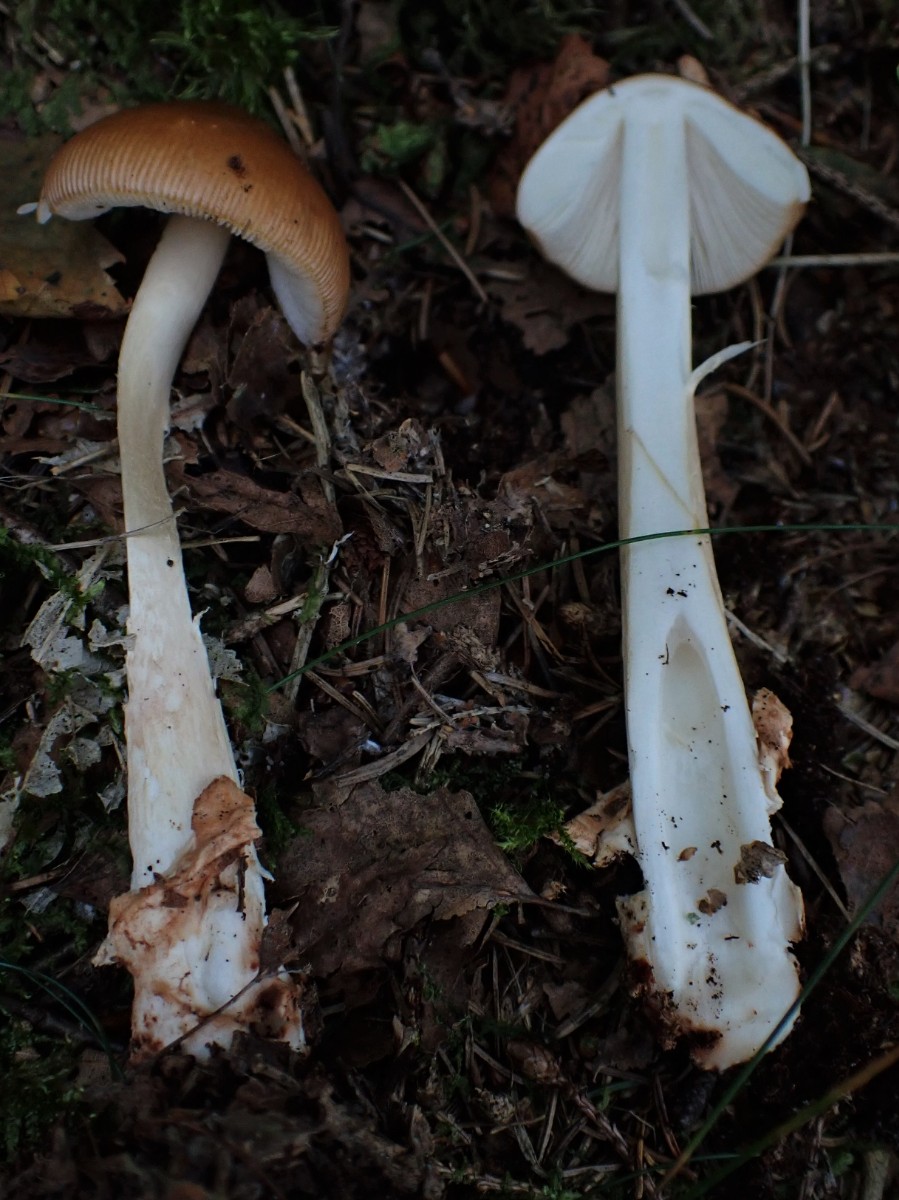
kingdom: Fungi
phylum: Basidiomycota
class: Agaricomycetes
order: Agaricales
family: Amanitaceae
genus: Amanita
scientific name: Amanita fulva
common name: brun kam-fluesvamp
